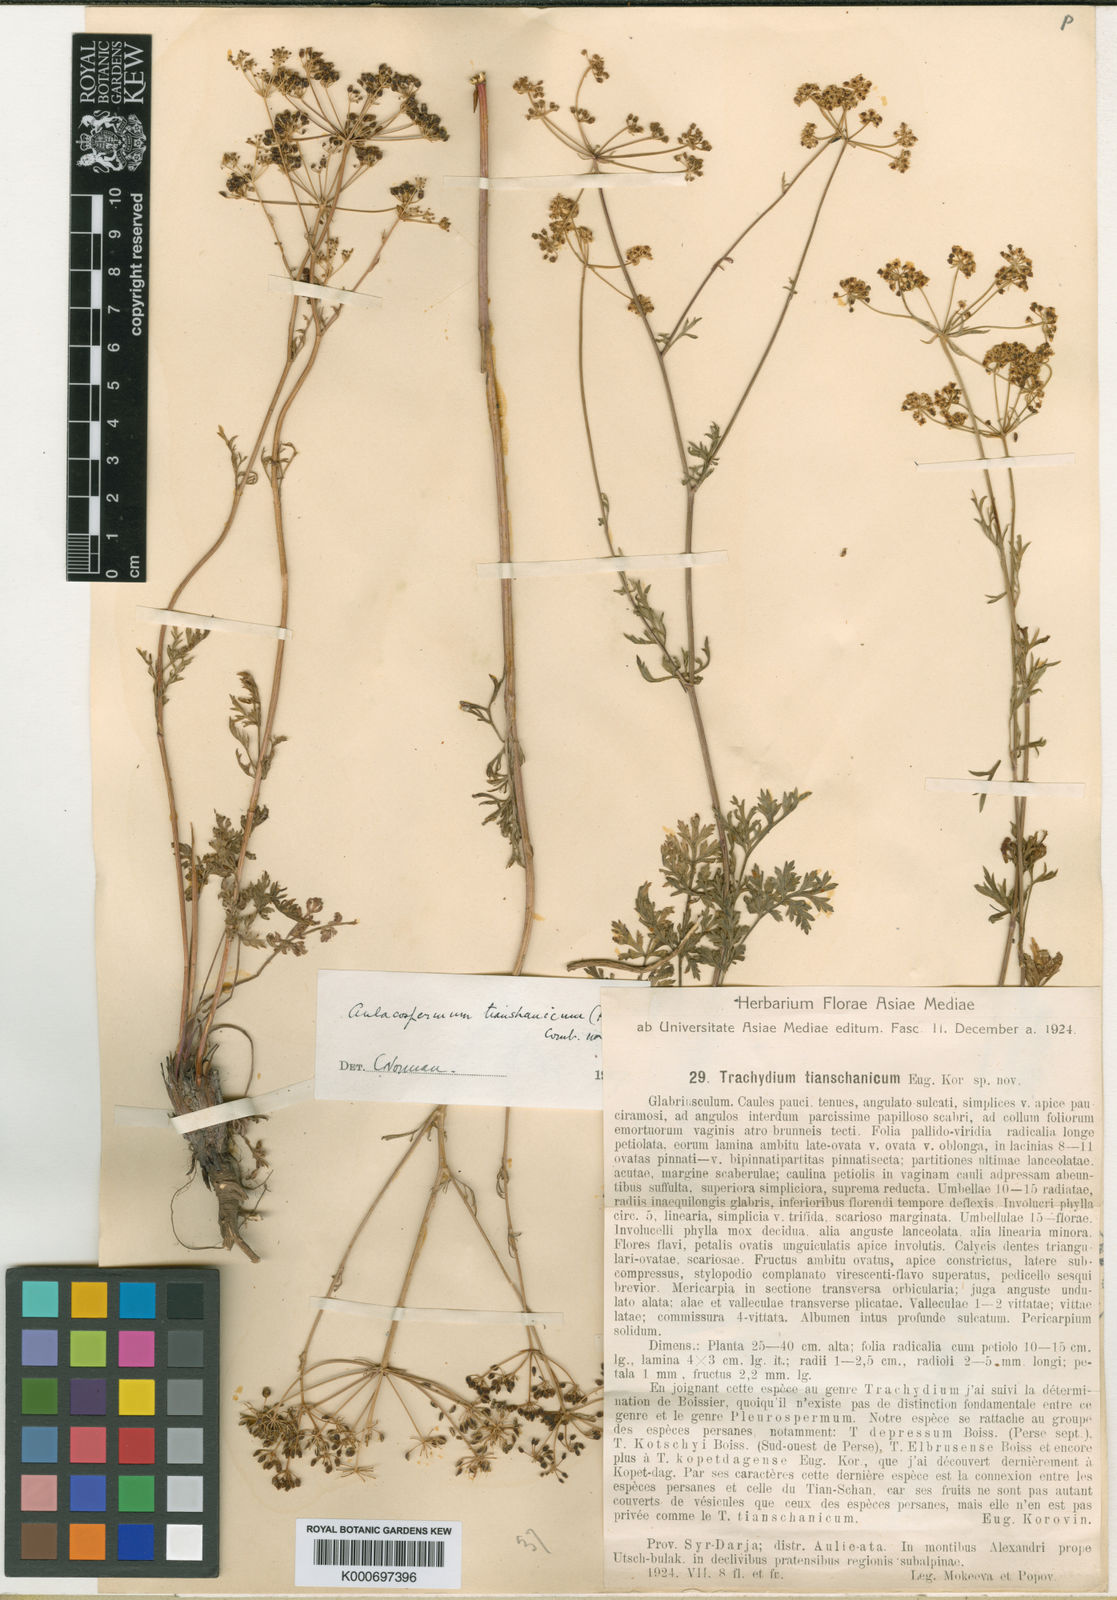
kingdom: Plantae
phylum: Tracheophyta
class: Magnoliopsida
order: Apiales
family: Apiaceae
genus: Eremodaucus
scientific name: Eremodaucus
